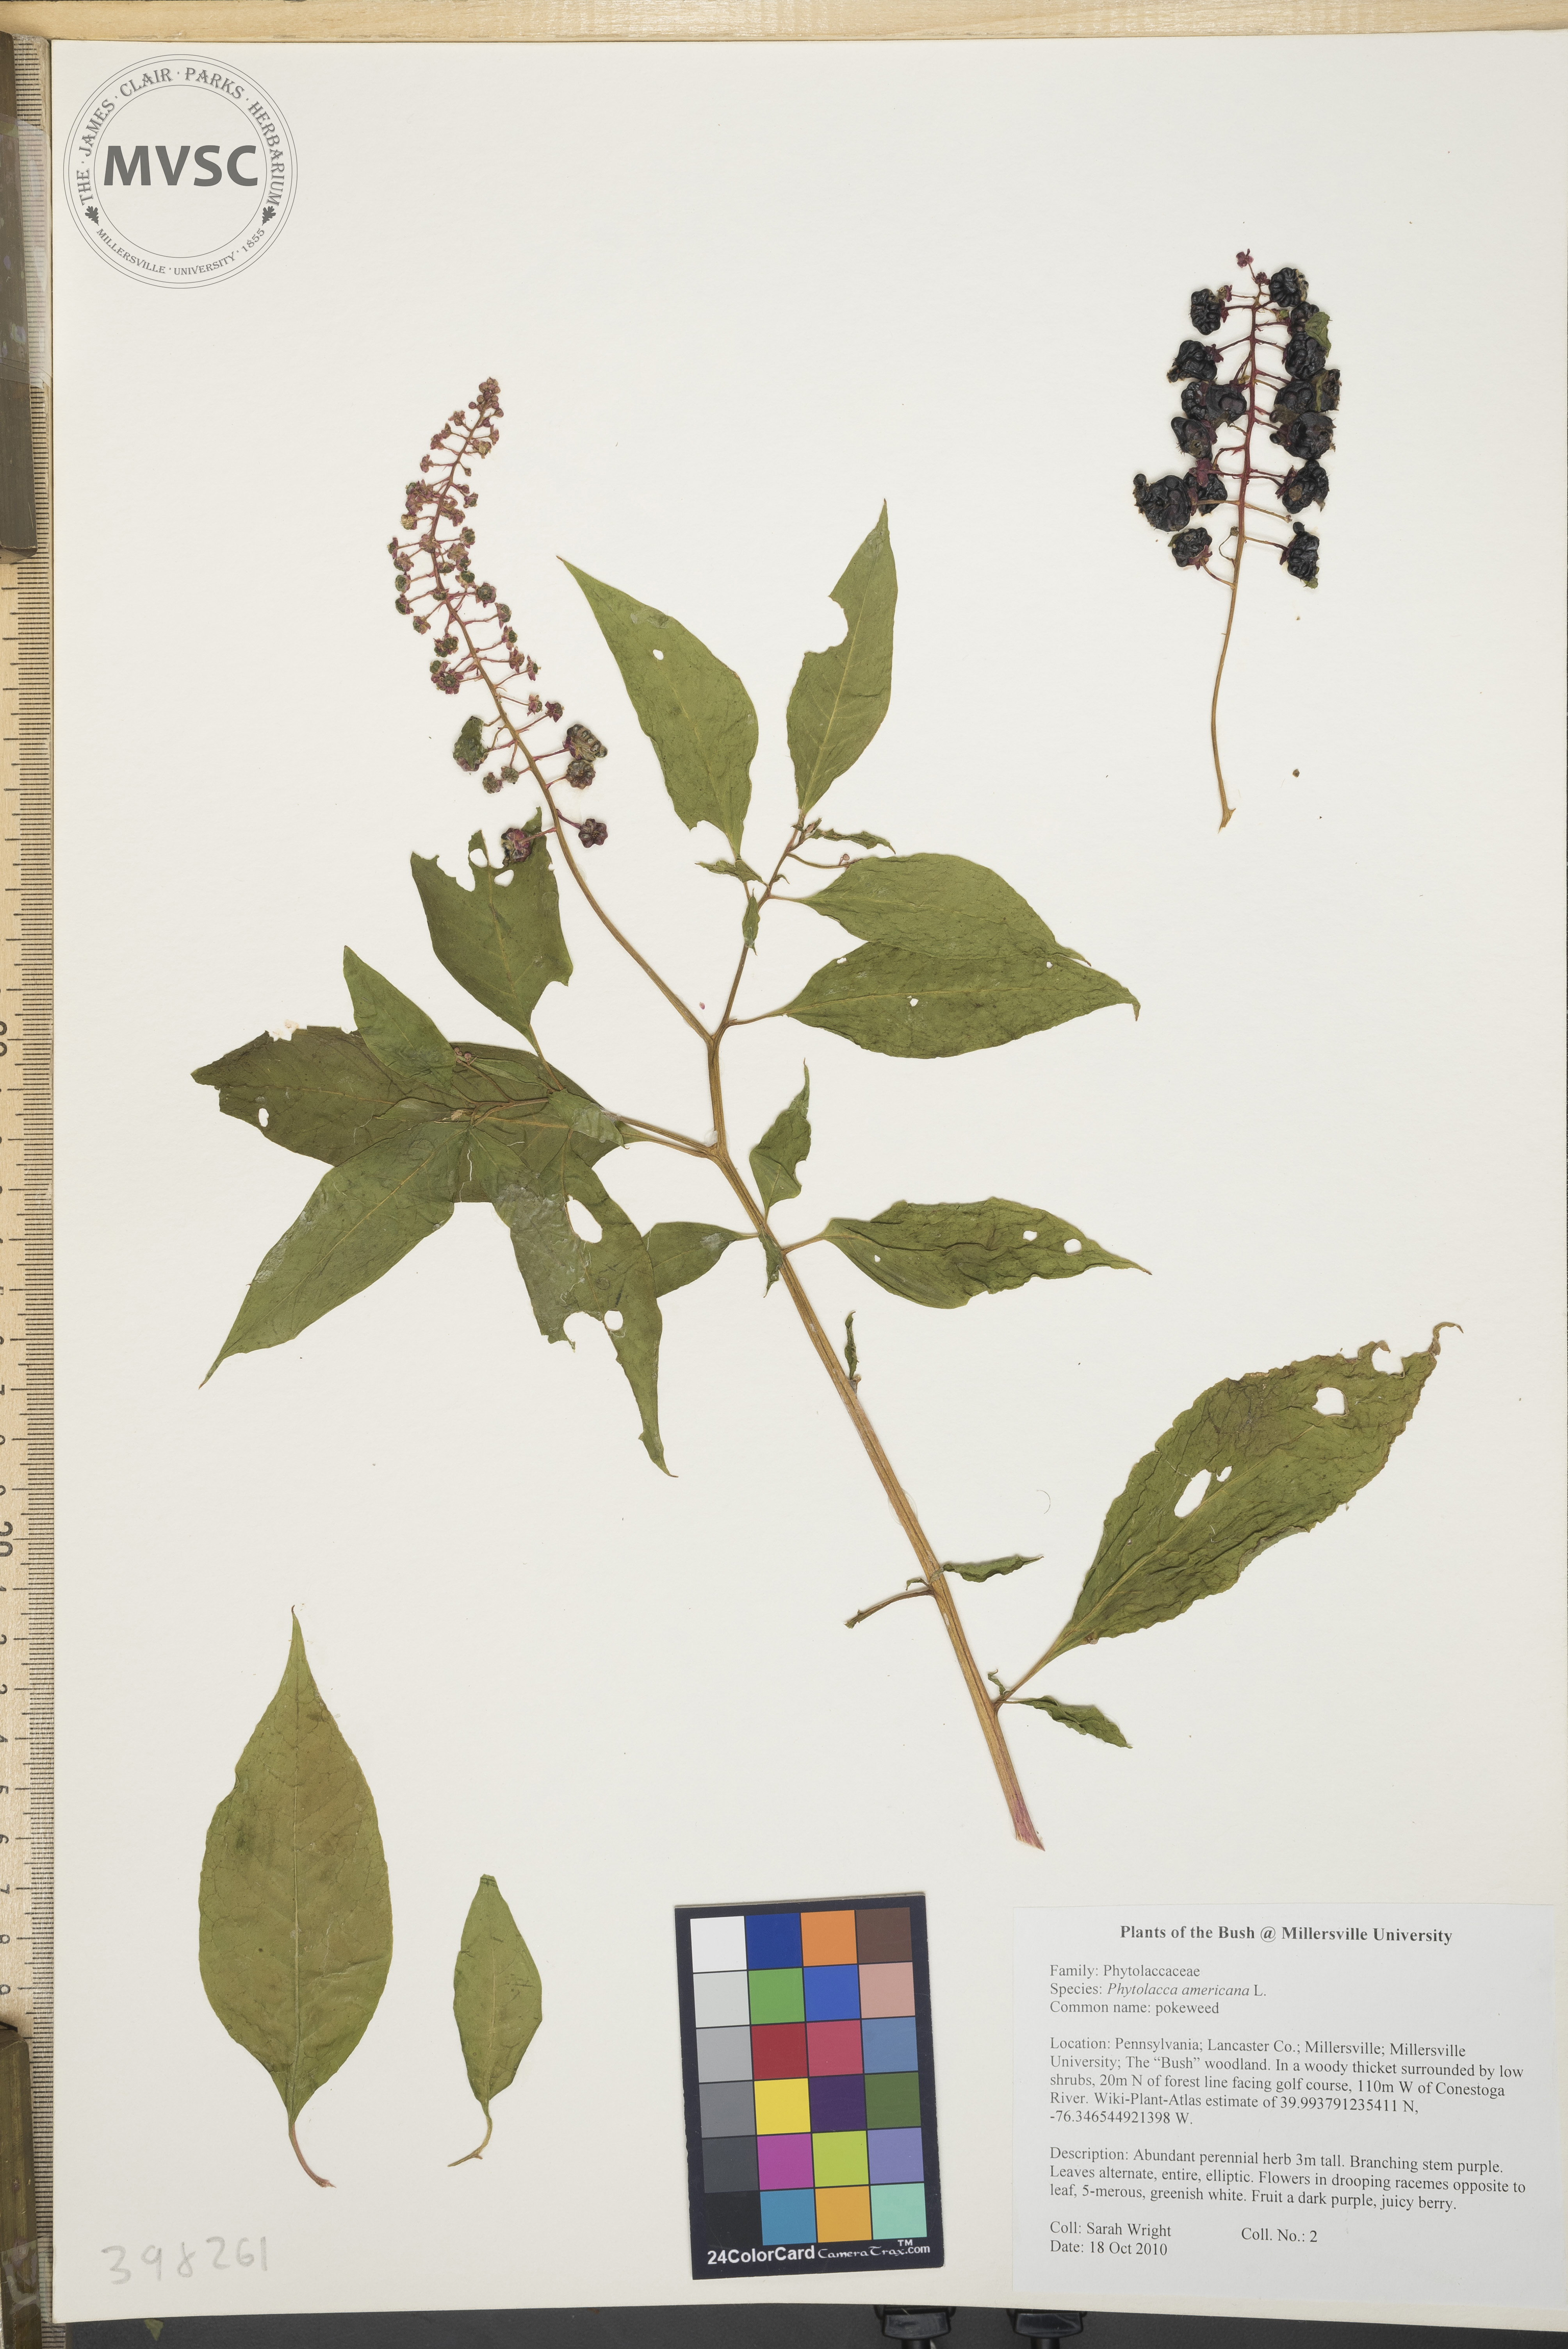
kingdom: Plantae
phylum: Tracheophyta
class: Magnoliopsida
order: Caryophyllales
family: Phytolaccaceae
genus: Phytolacca
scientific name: Phytolacca americana
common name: Pokeweed
